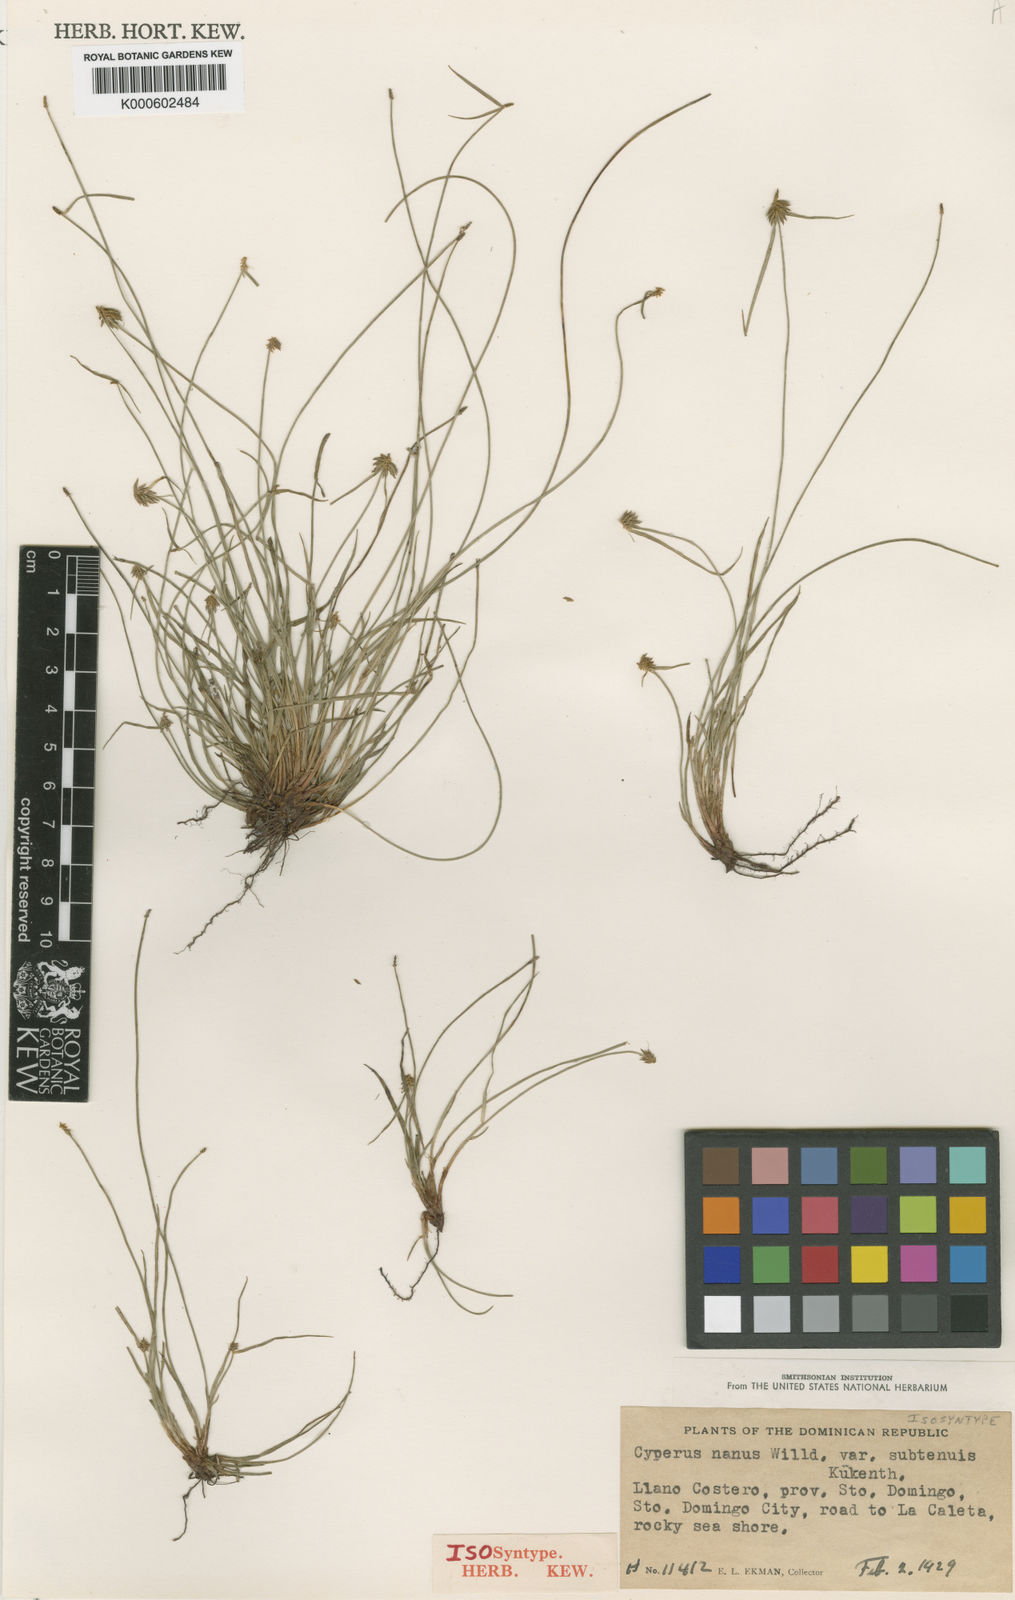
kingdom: Plantae
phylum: Tracheophyta
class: Liliopsida
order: Poales
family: Cyperaceae
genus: Cyperus
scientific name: Cyperus nanus
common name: Indian flatsedge
